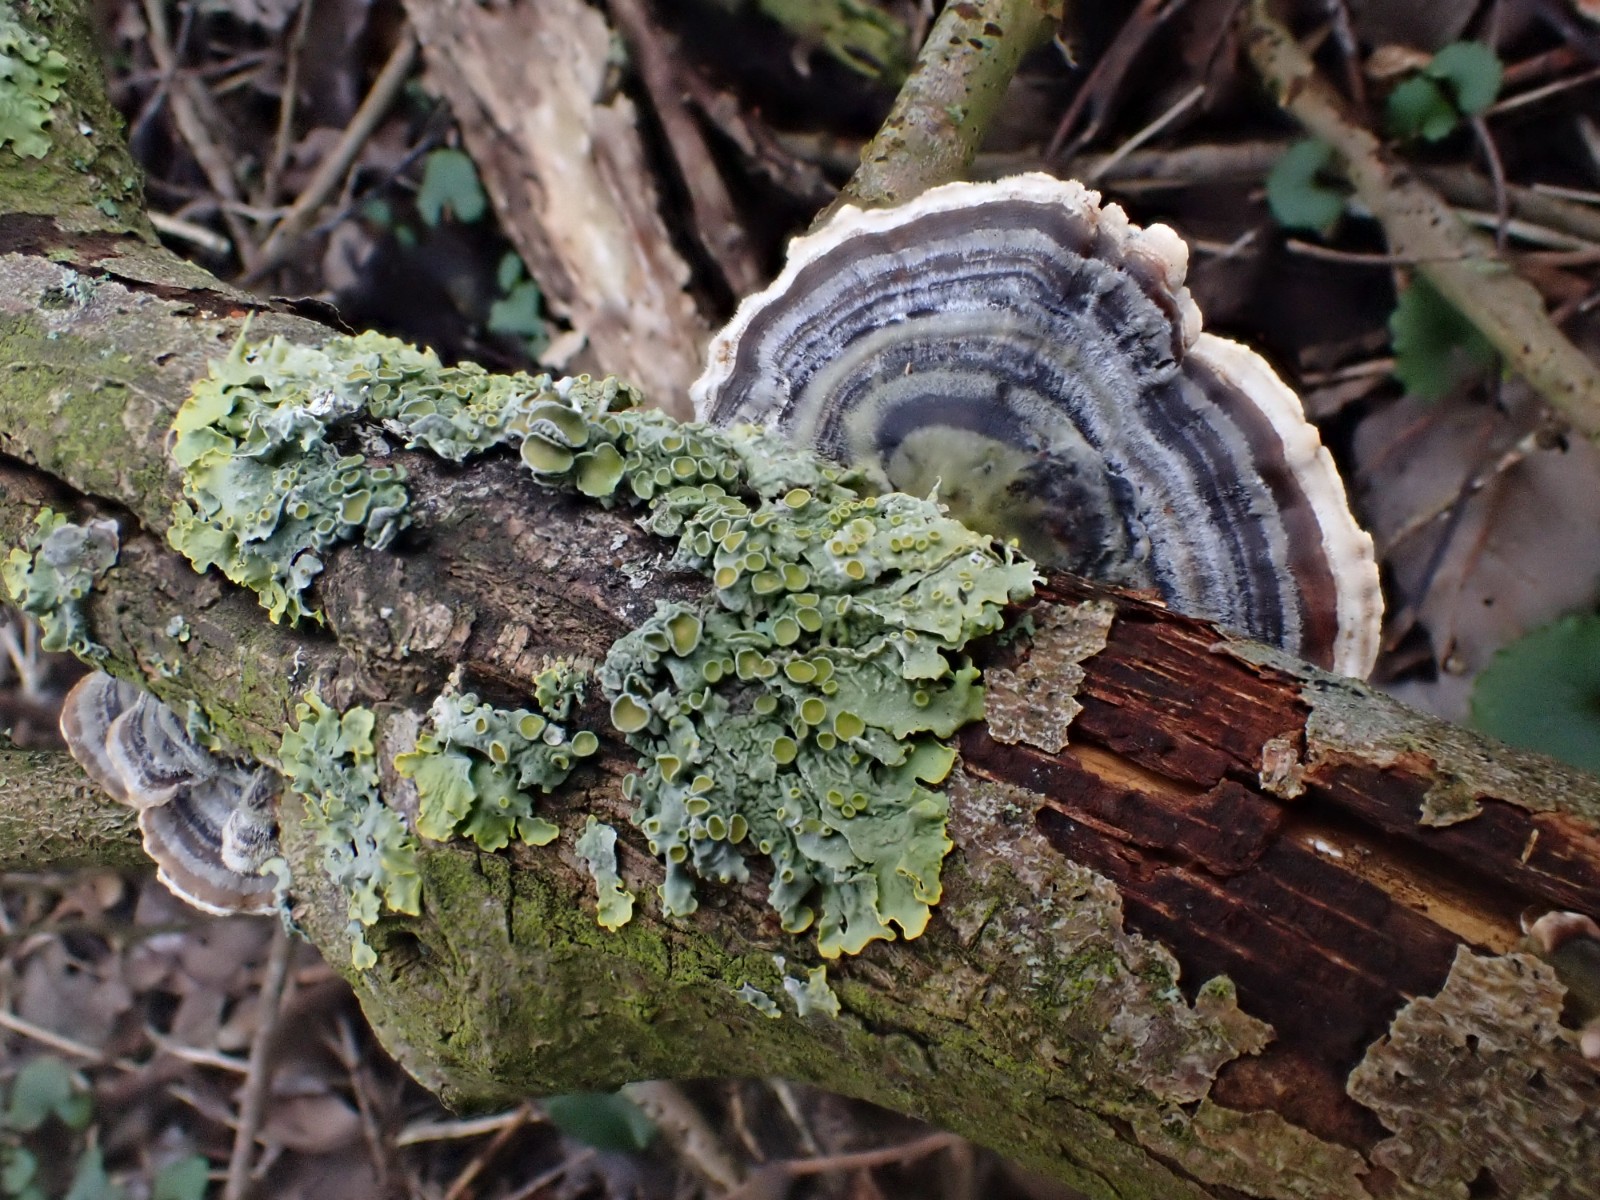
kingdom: Fungi
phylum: Basidiomycota
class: Agaricomycetes
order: Polyporales
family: Polyporaceae
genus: Trametes
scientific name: Trametes versicolor
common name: broget læderporesvamp
